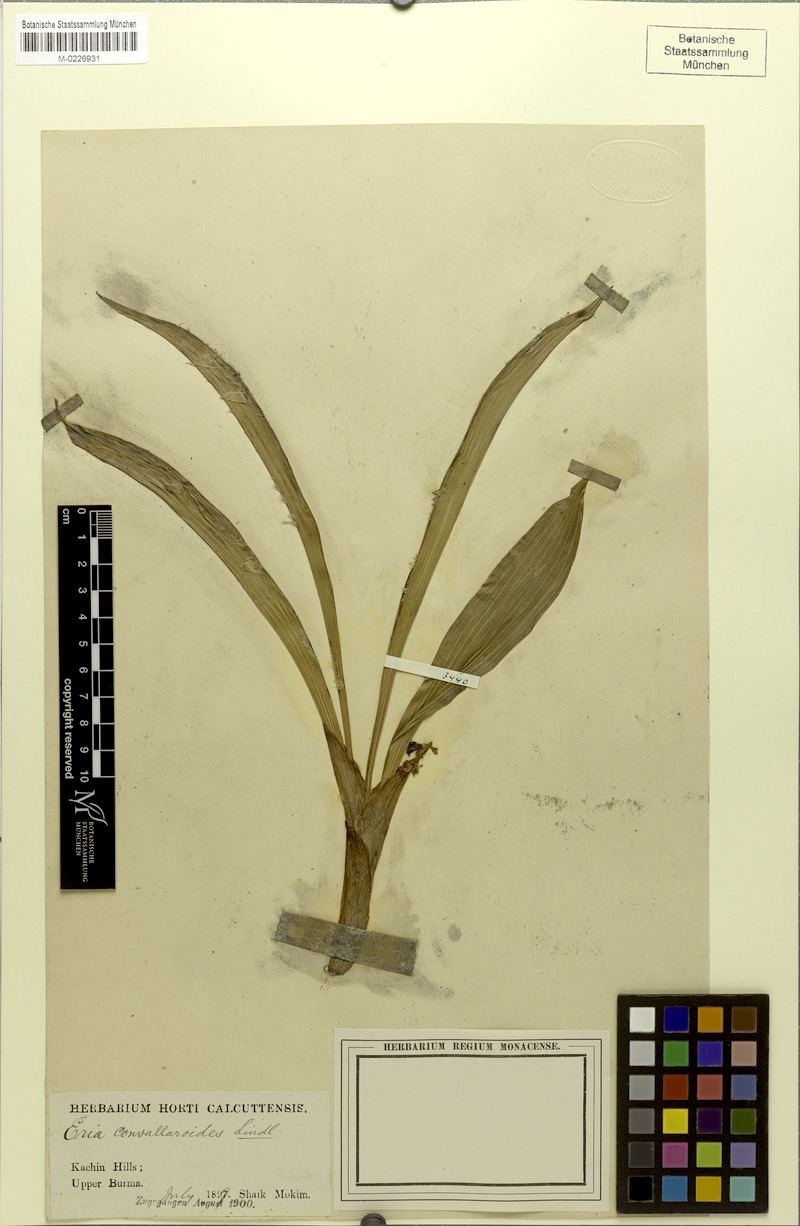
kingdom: Plantae
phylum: Tracheophyta
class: Liliopsida
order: Asparagales
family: Orchidaceae
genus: Pinalia
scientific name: Pinalia spicata
